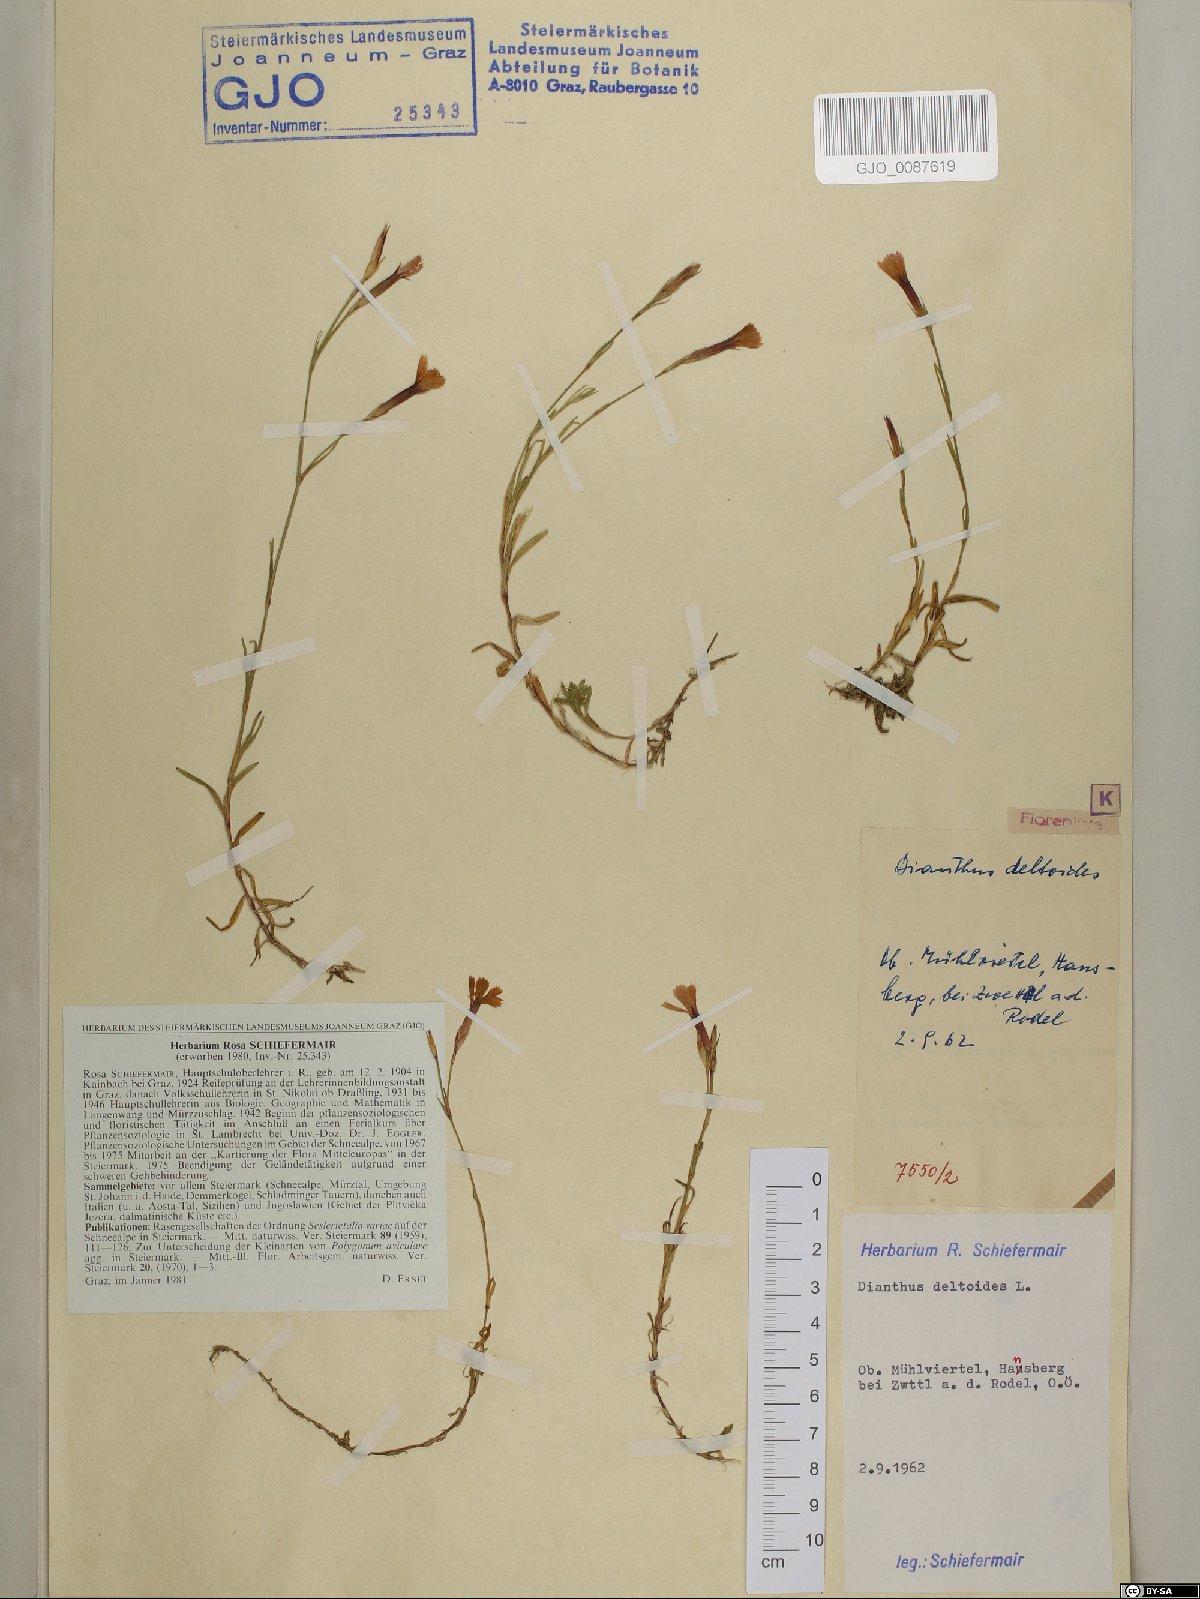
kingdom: Plantae
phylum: Tracheophyta
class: Magnoliopsida
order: Caryophyllales
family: Caryophyllaceae
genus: Dianthus
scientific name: Dianthus deltoides
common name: Maiden pink
